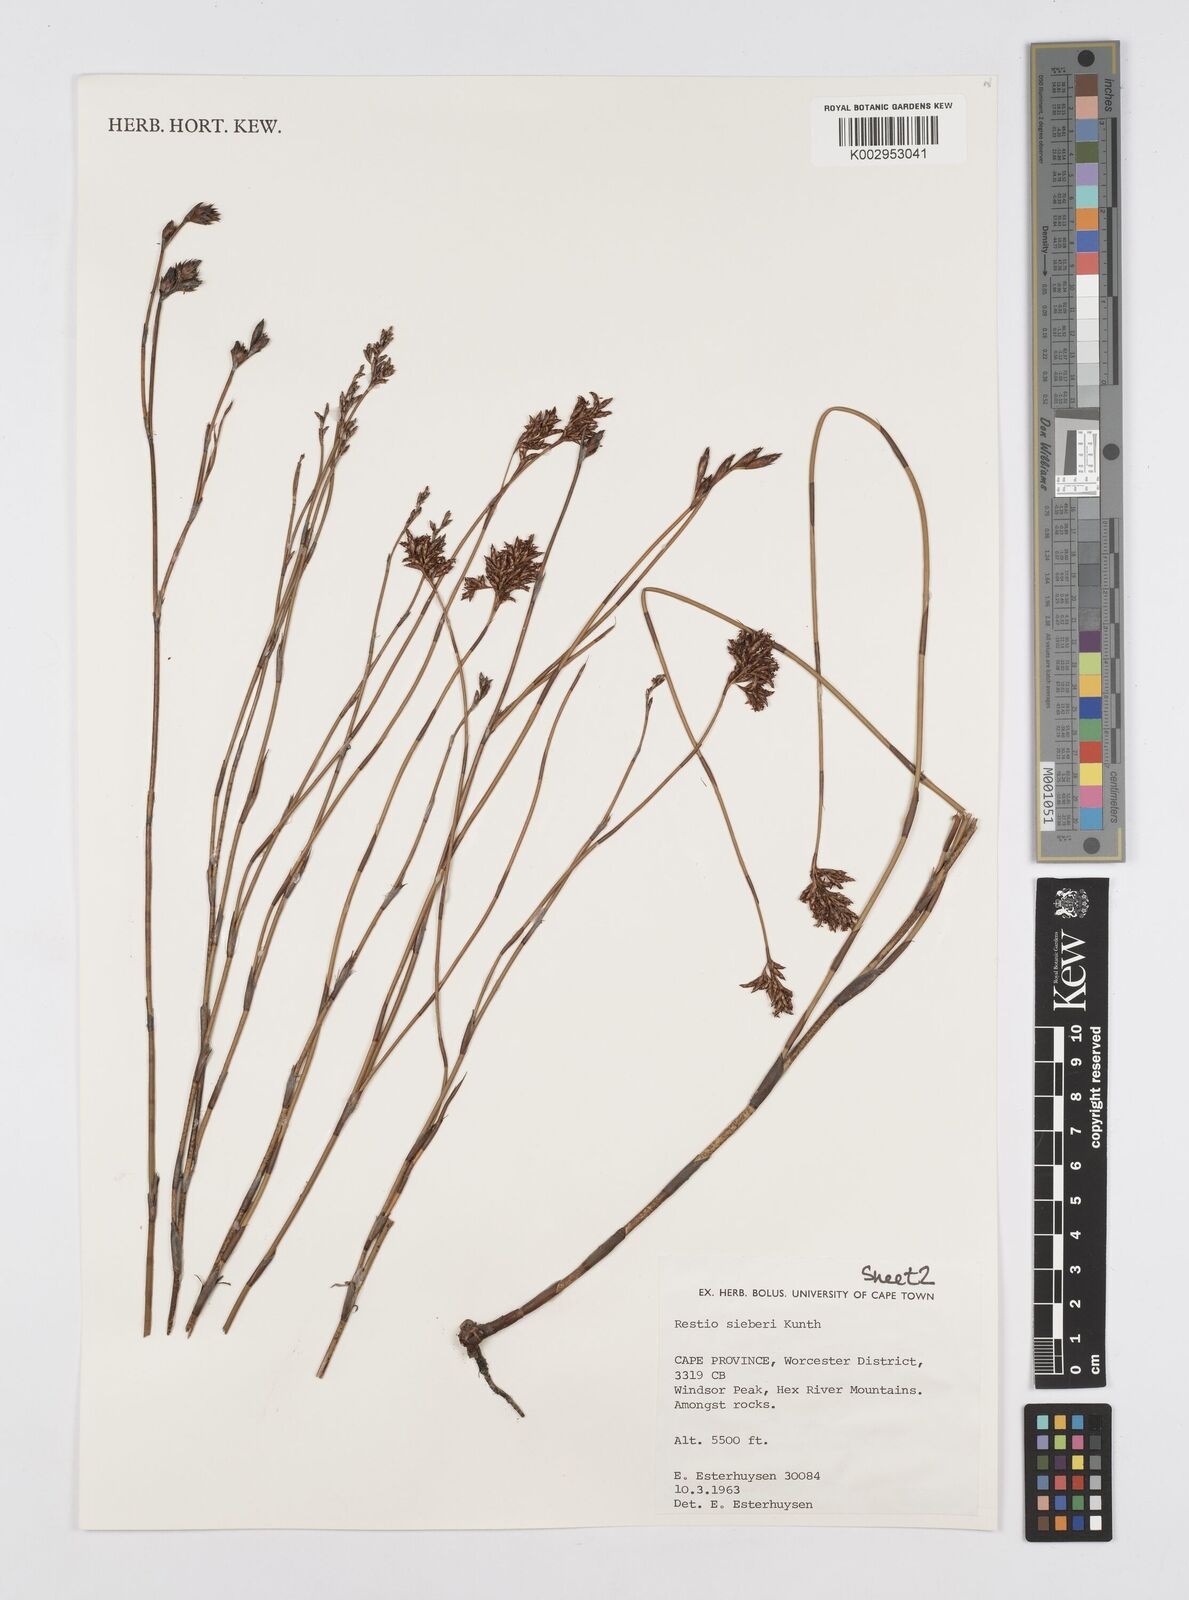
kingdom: Plantae
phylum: Tracheophyta
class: Liliopsida
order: Poales
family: Restionaceae
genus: Restio
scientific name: Restio sieberi
